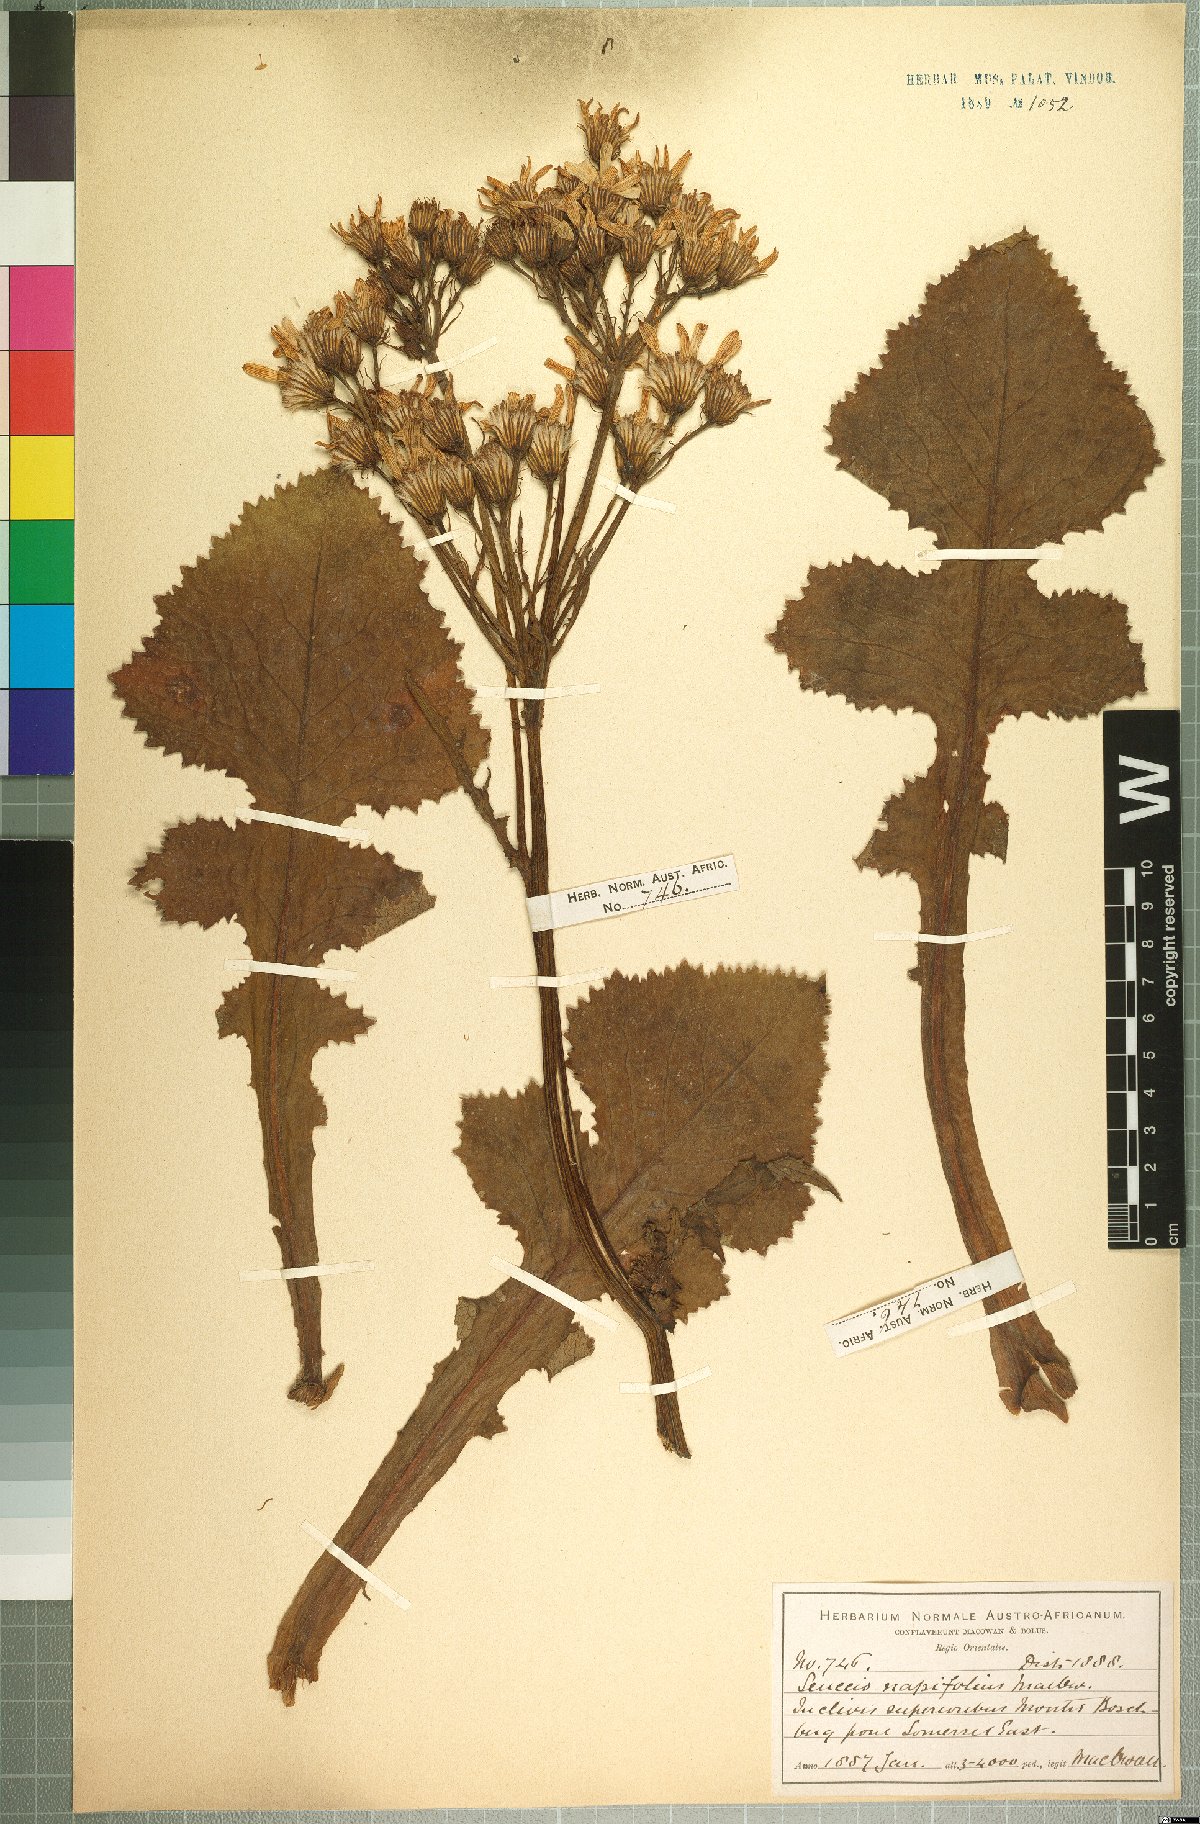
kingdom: Plantae
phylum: Tracheophyta
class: Magnoliopsida
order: Asterales
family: Asteraceae
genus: Senecio
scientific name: Senecio napifolius
